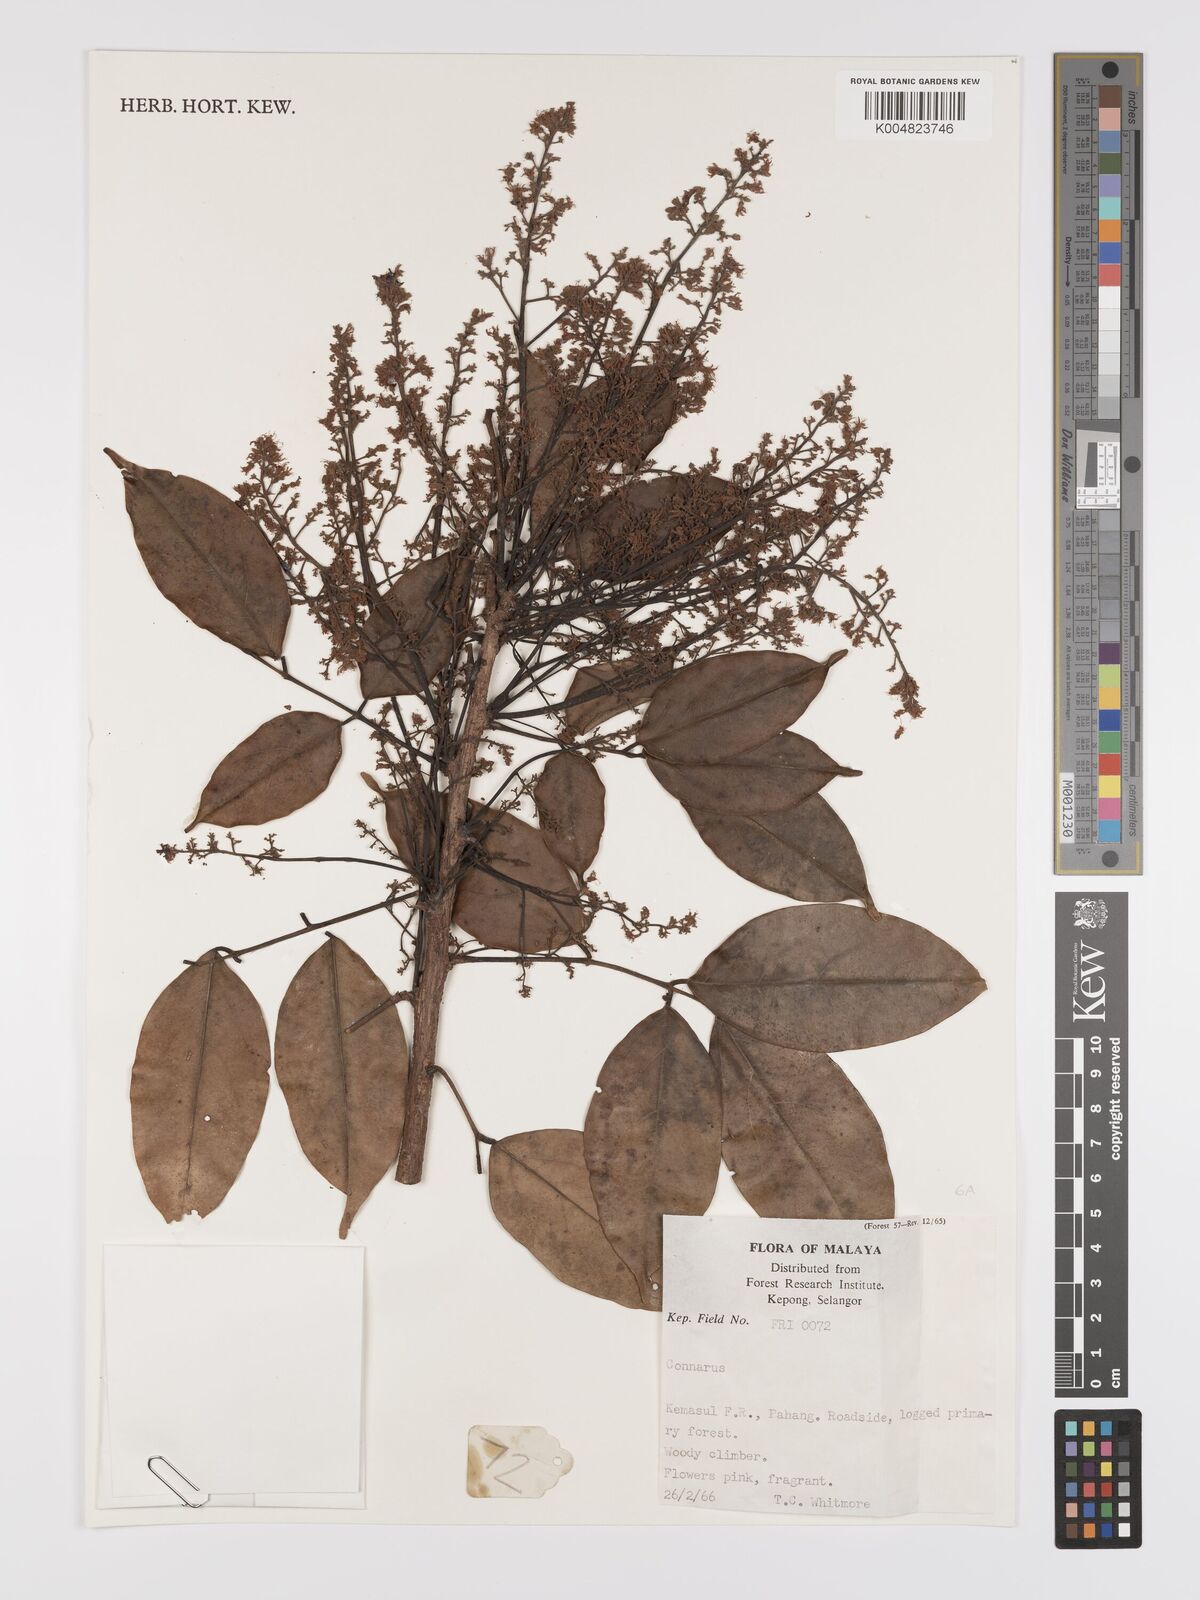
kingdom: Plantae
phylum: Tracheophyta
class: Magnoliopsida
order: Oxalidales
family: Connaraceae
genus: Connarus
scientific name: Connarus
